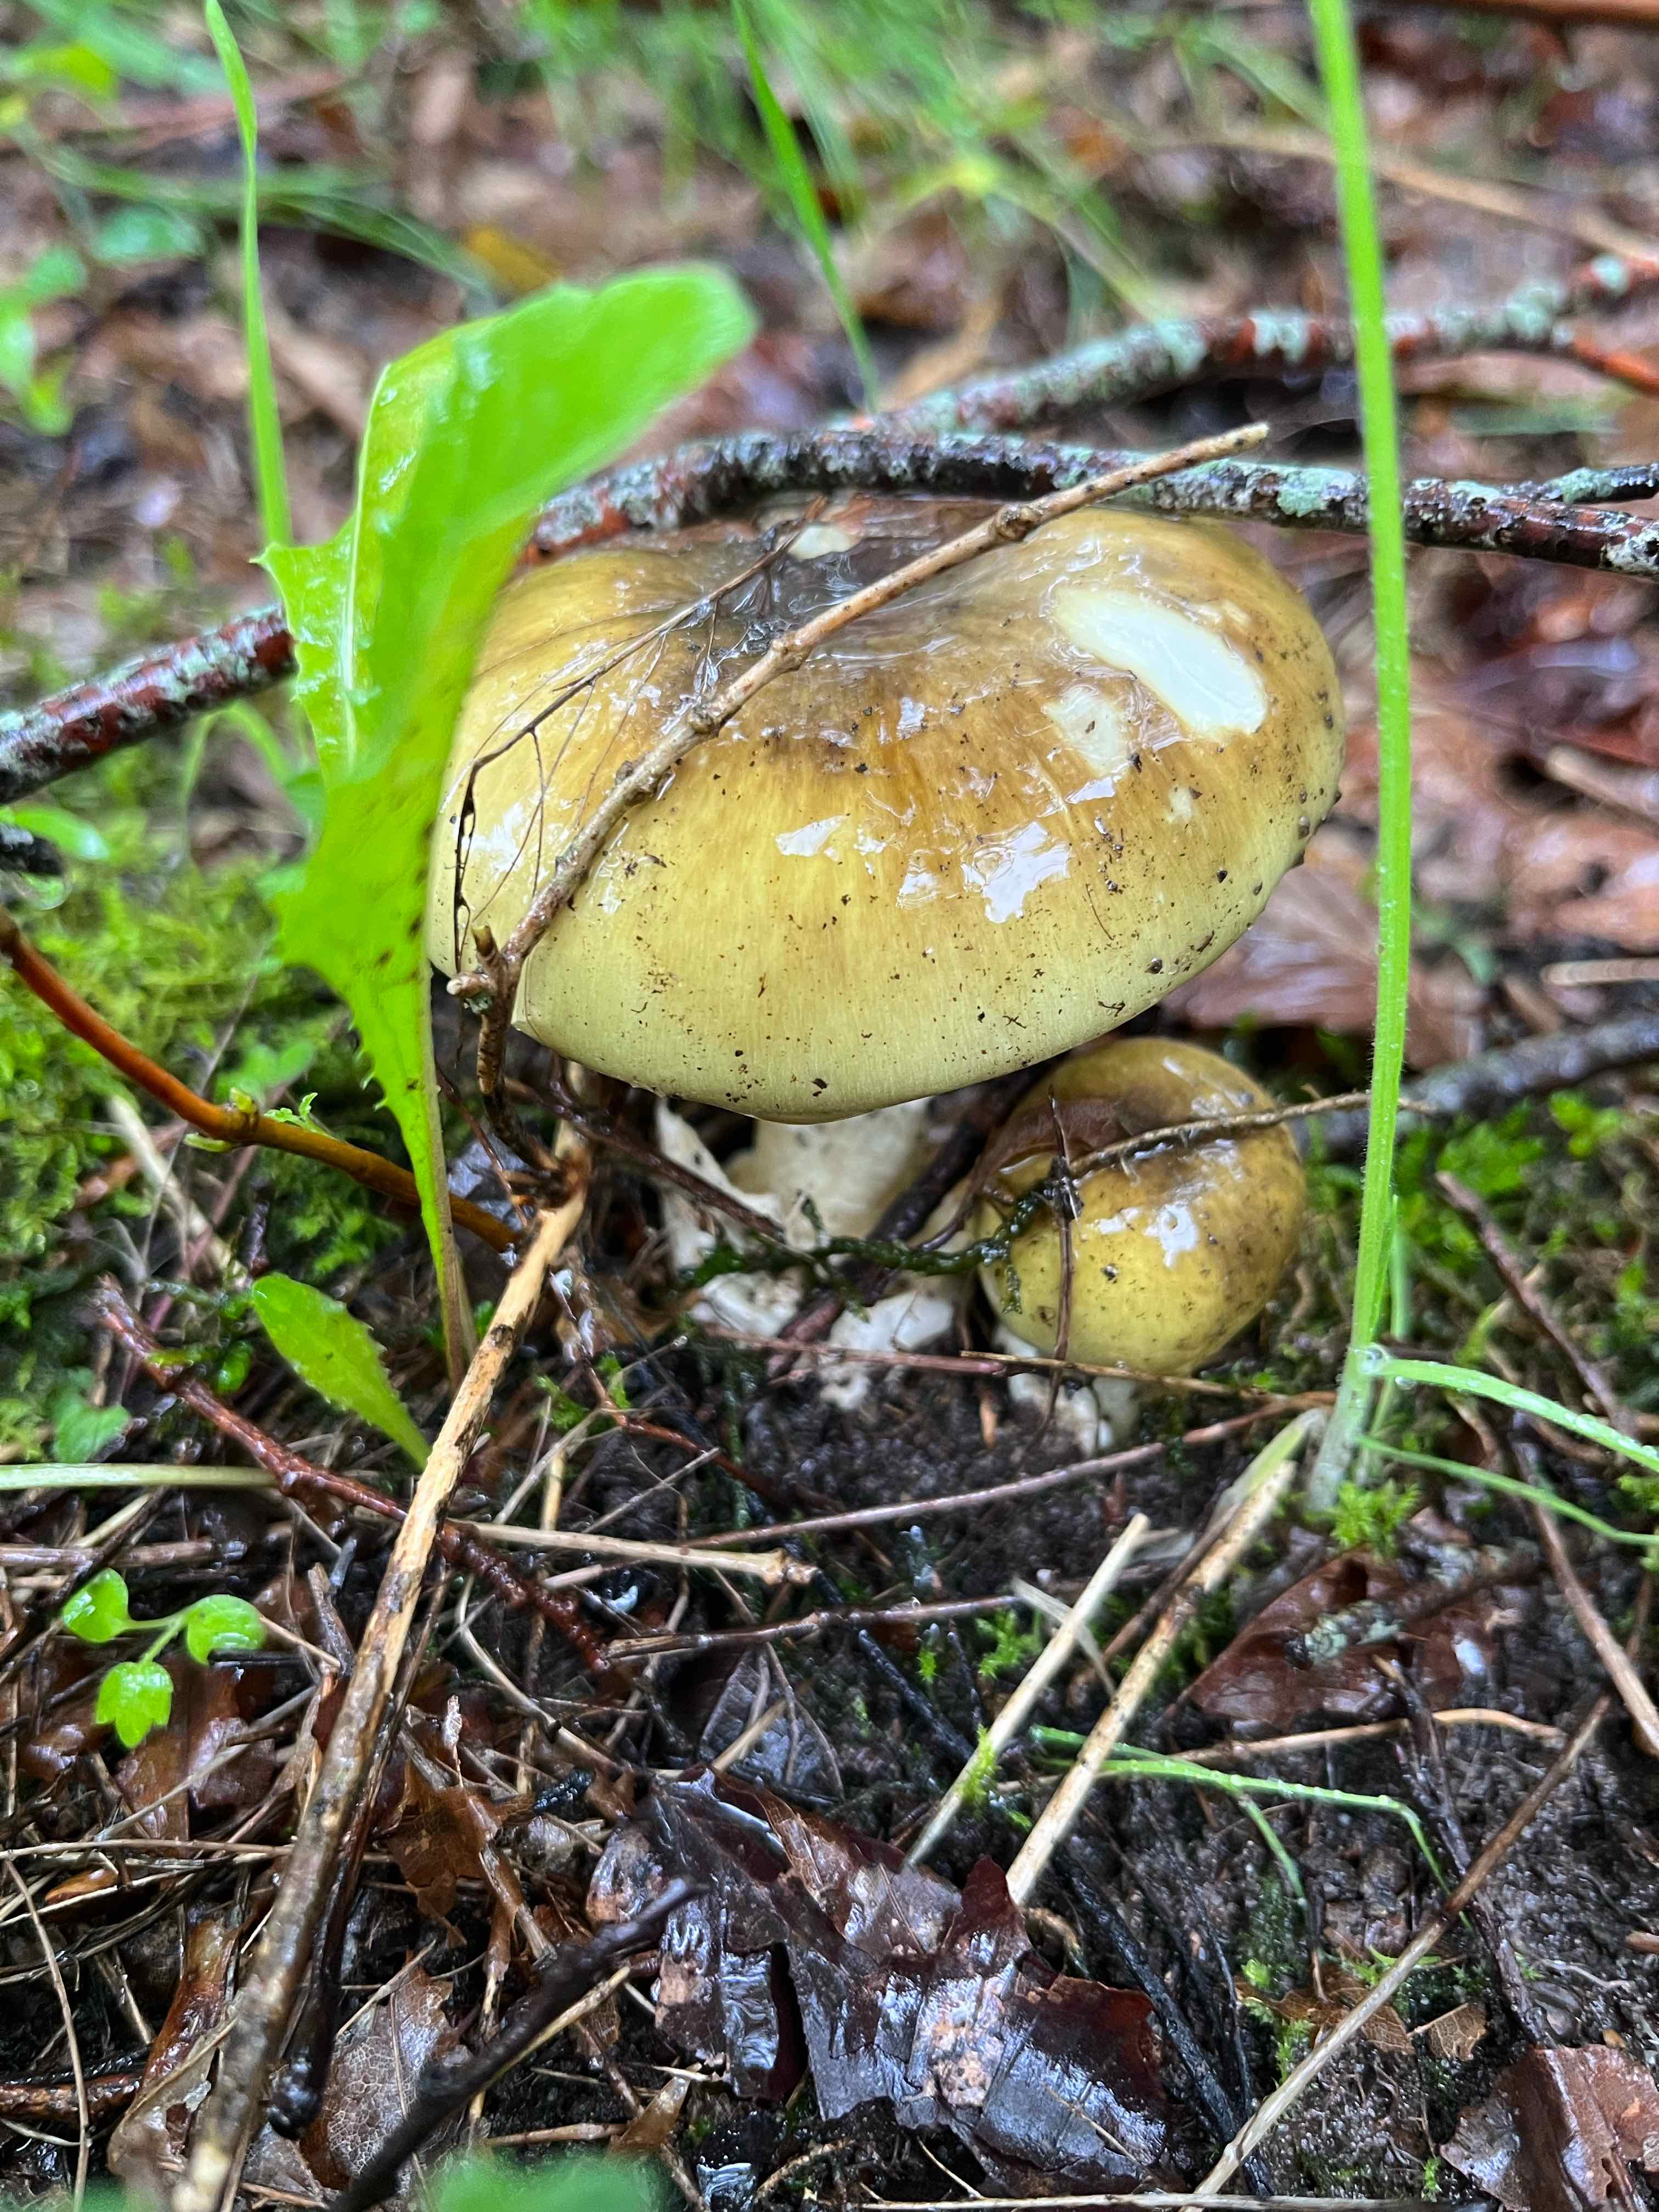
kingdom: Fungi
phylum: Basidiomycota
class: Agaricomycetes
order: Agaricales
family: Amanitaceae
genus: Amanita
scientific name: Amanita phalloides
